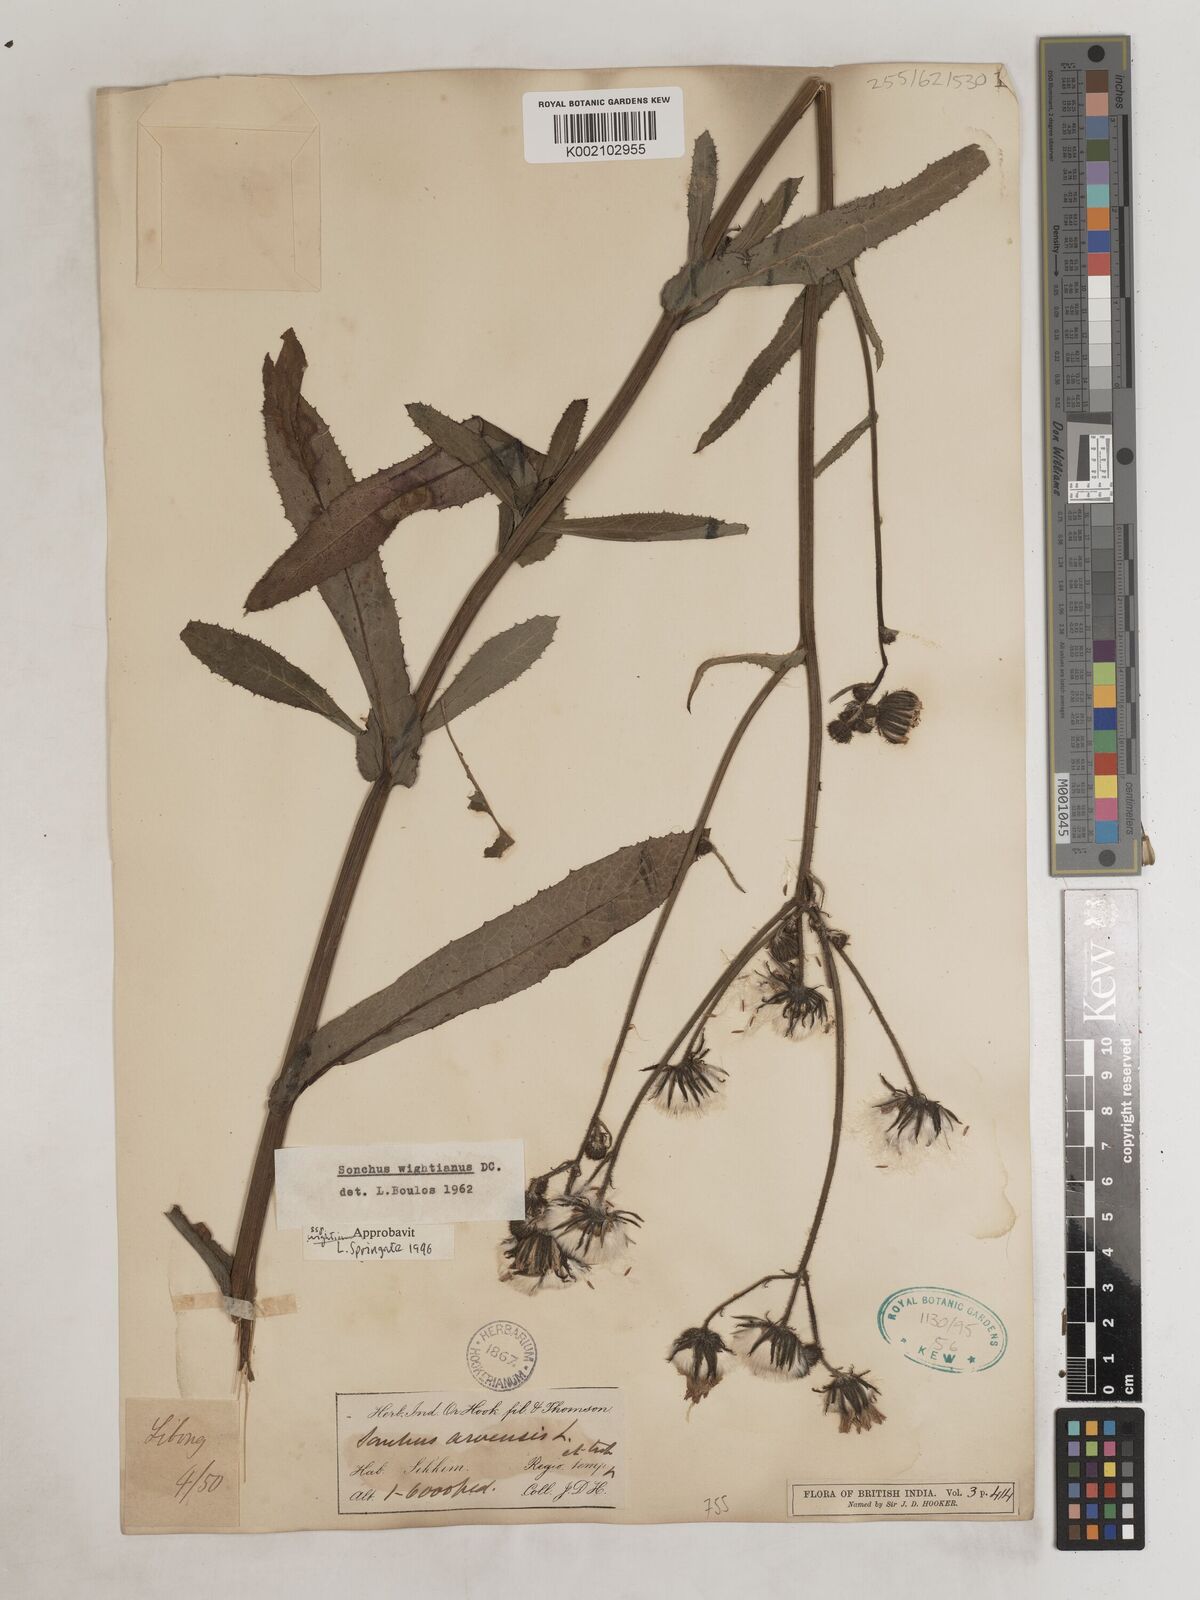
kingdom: Plantae
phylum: Tracheophyta
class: Magnoliopsida
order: Asterales
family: Asteraceae
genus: Sonchus
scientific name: Sonchus arvensis
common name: Perennial sow-thistle
